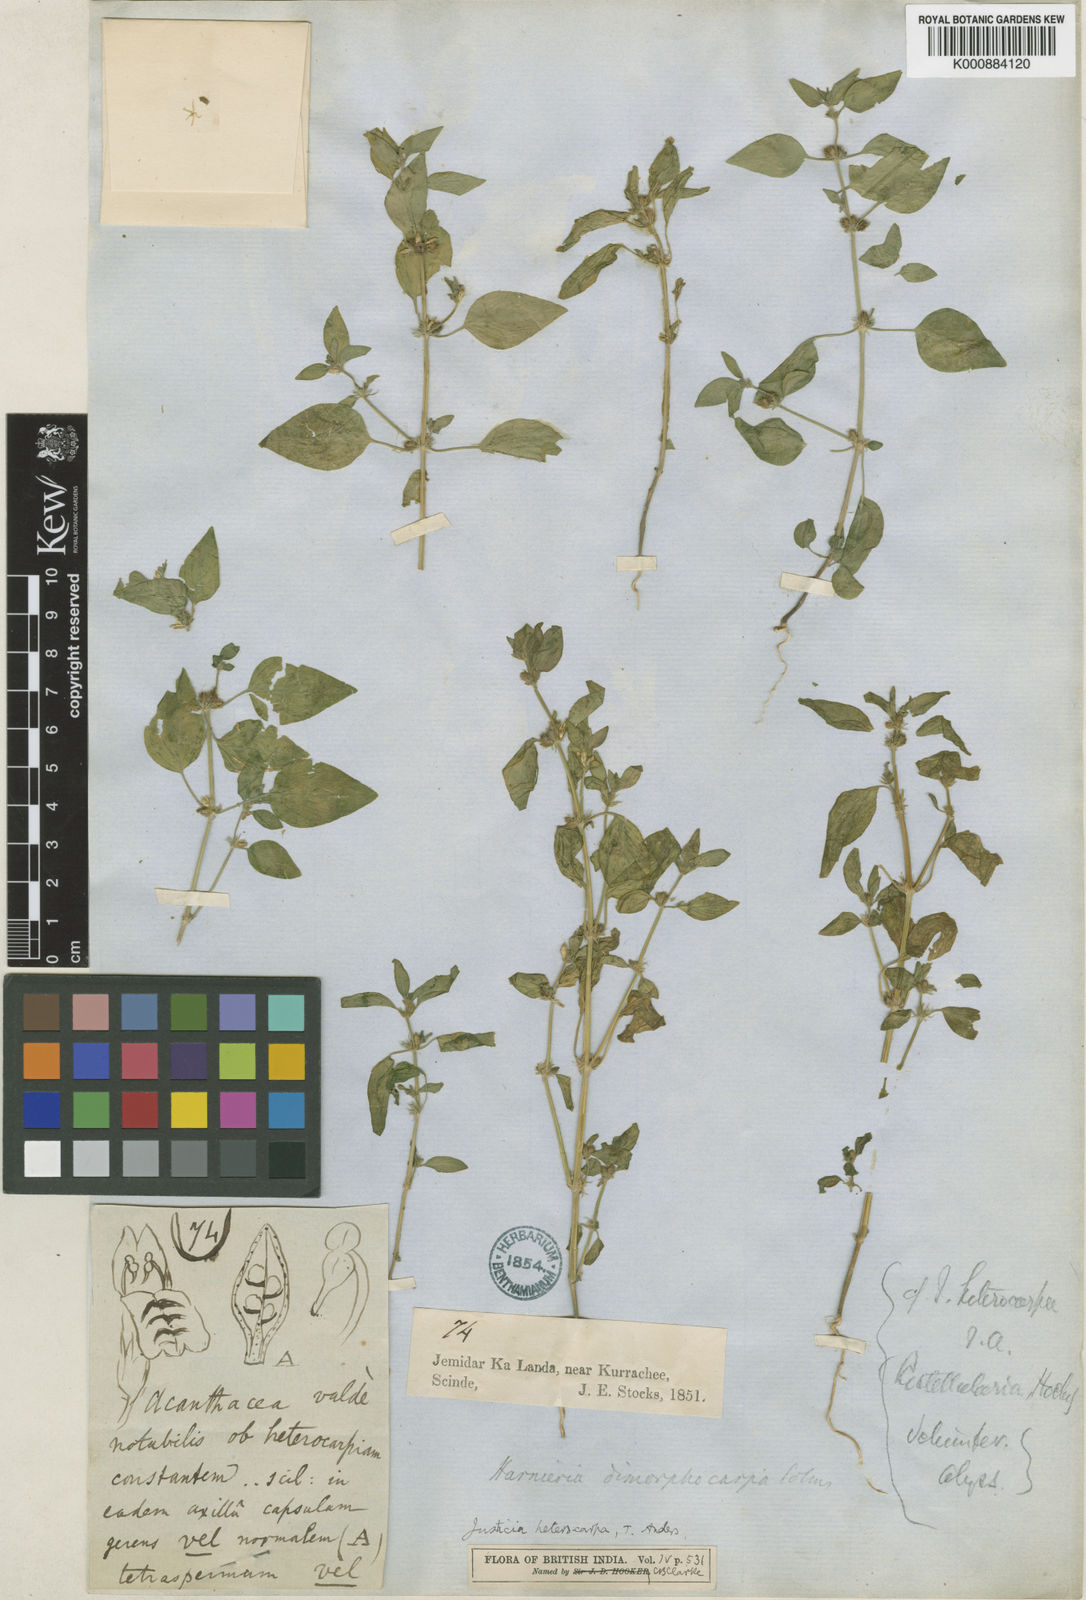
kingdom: Plantae
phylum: Tracheophyta
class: Magnoliopsida
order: Lamiales
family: Acanthaceae
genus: Justicia
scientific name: Justicia heterocarpa
